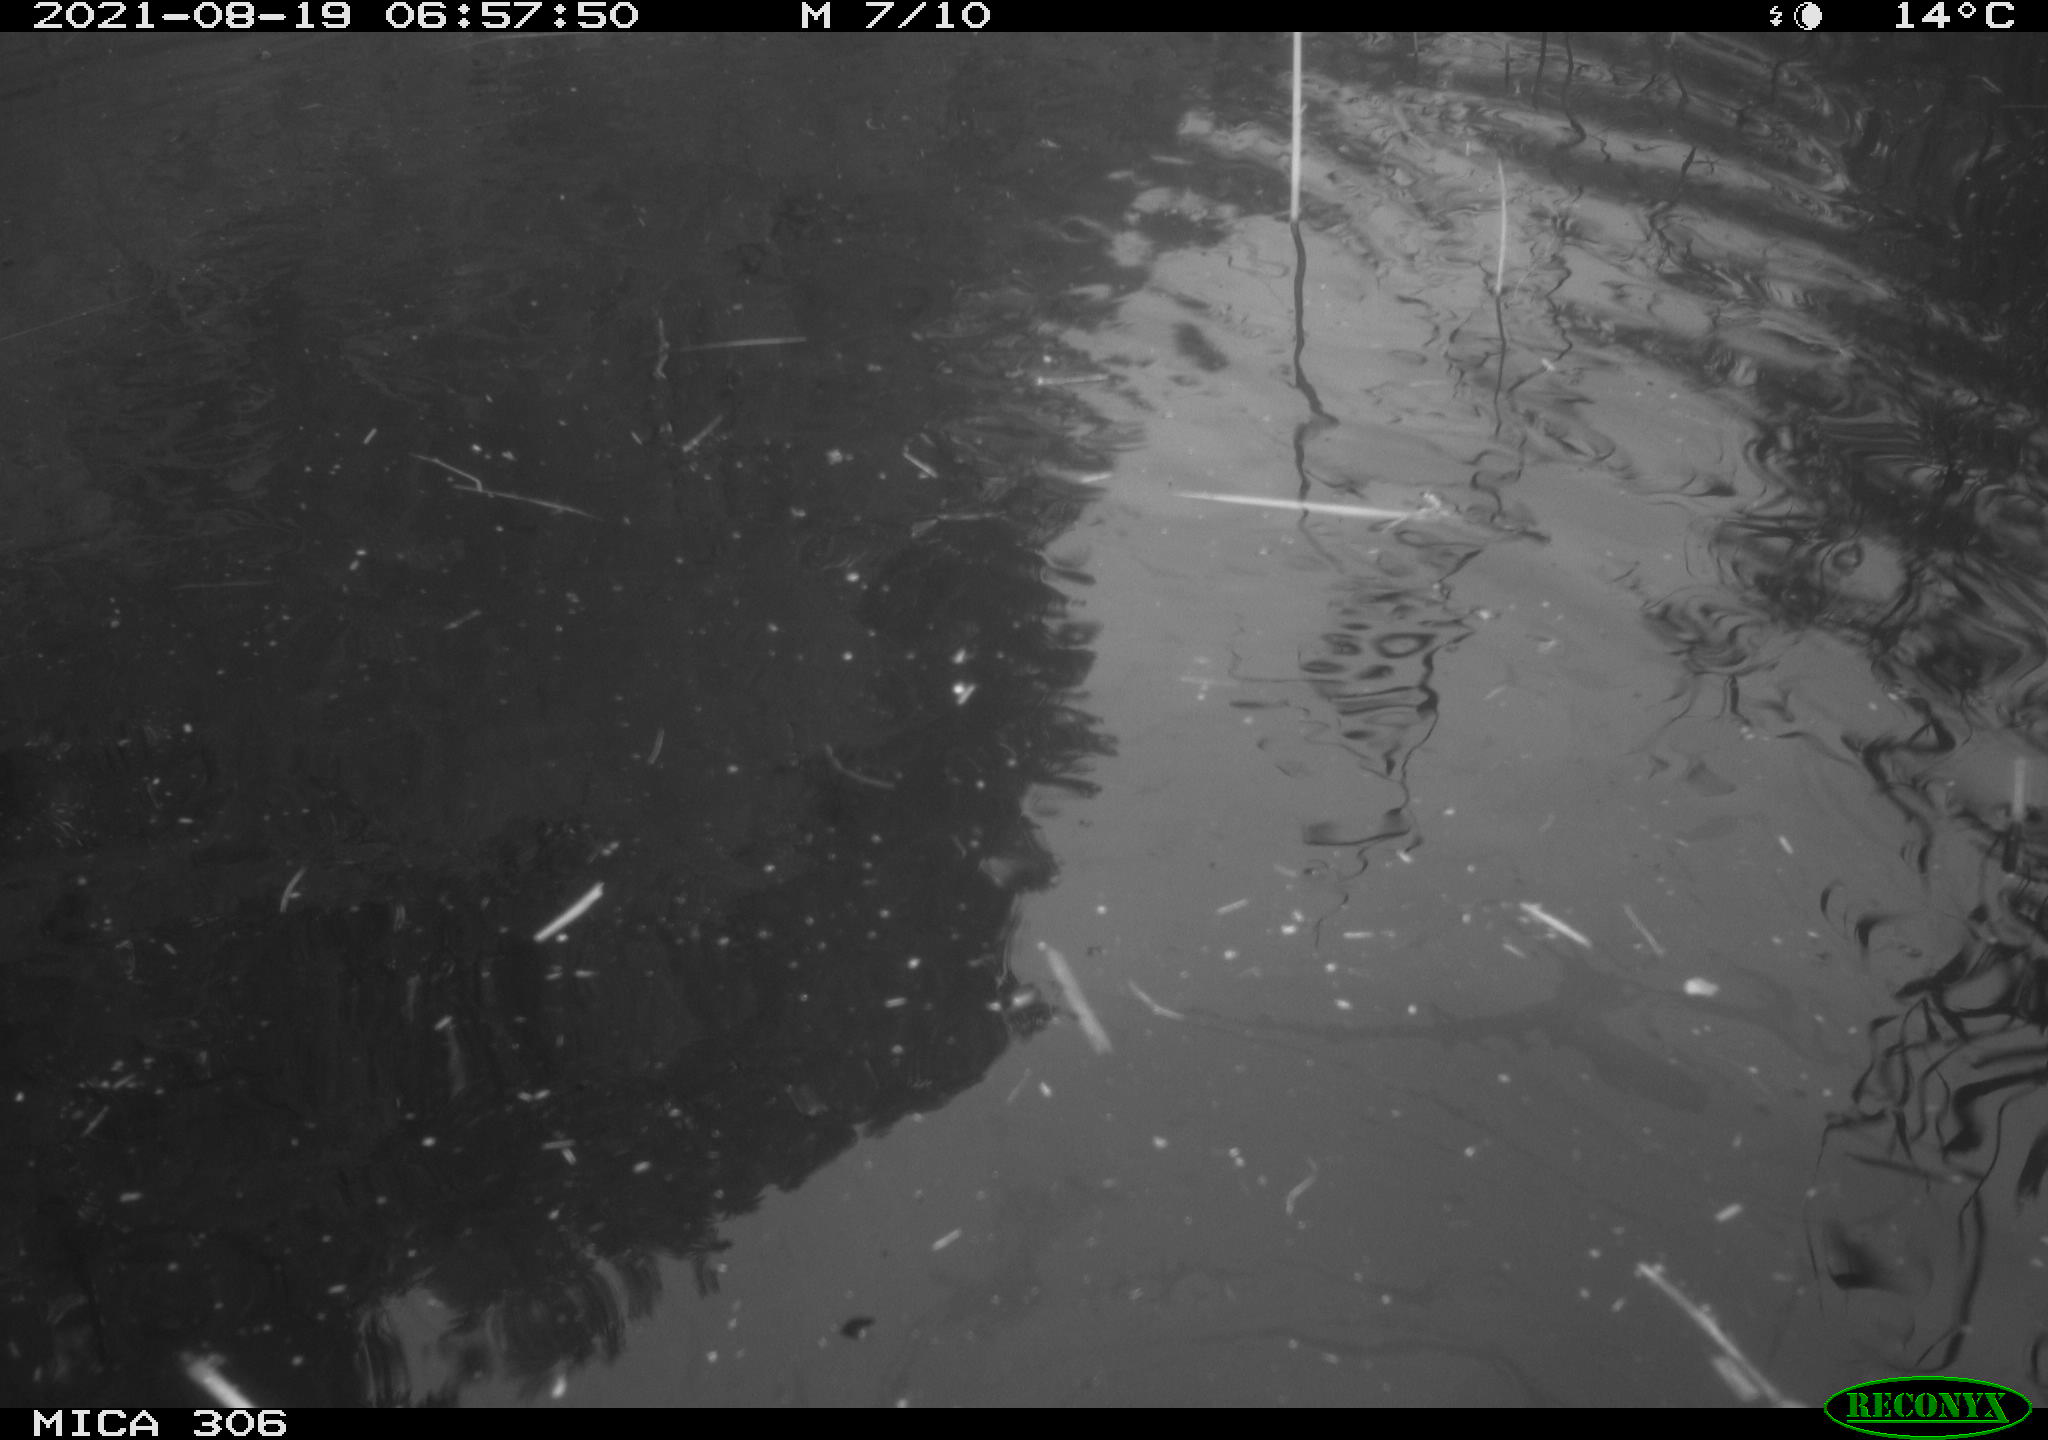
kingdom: Animalia
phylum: Chordata
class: Aves
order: Anseriformes
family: Anatidae
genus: Anas
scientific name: Anas platyrhynchos
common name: Mallard
